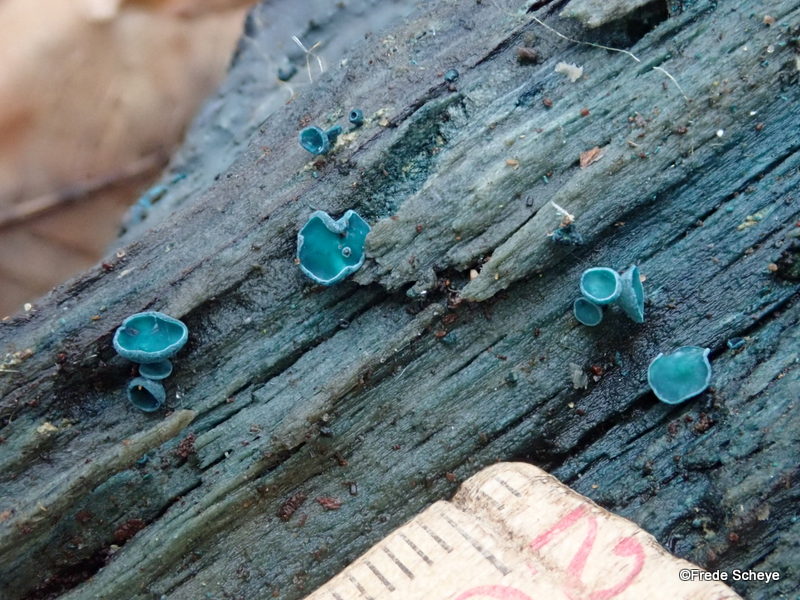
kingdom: Fungi
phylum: Ascomycota
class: Leotiomycetes
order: Helotiales
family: Chlorociboriaceae
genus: Chlorociboria
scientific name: Chlorociboria aeruginascens
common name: almindelig grønskive
